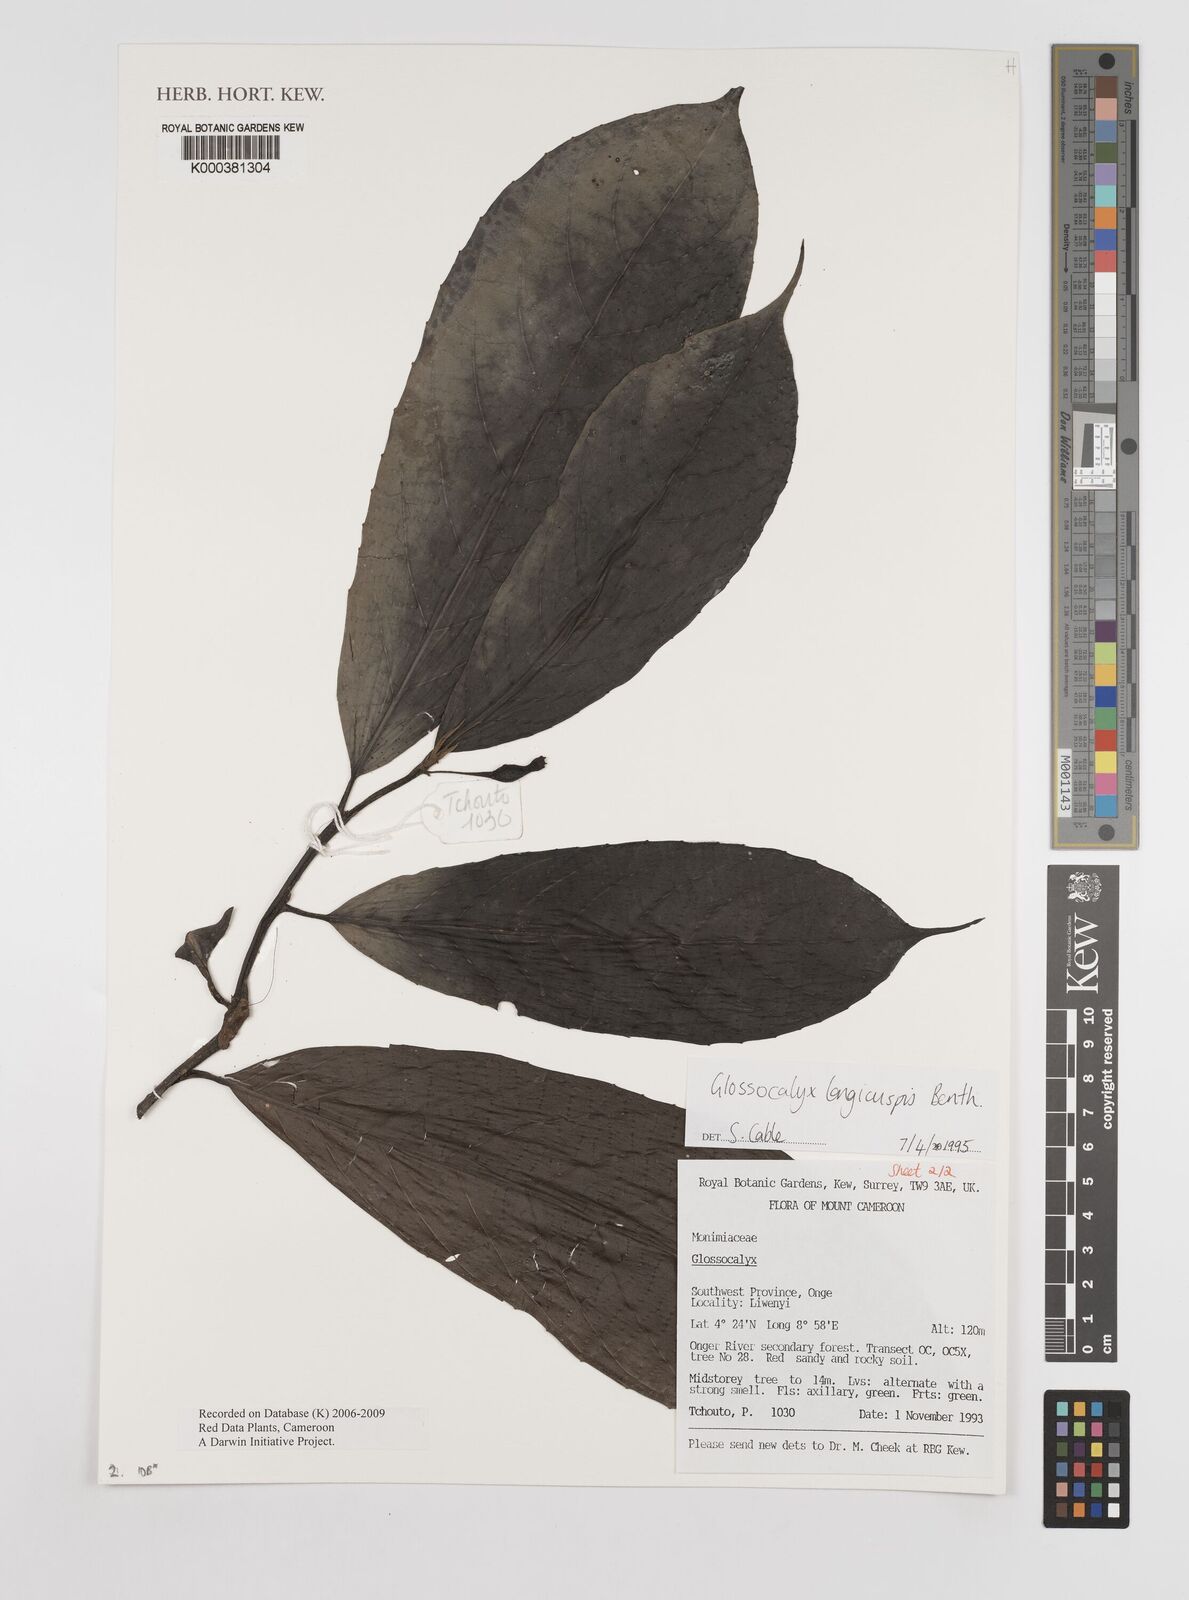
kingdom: Plantae
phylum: Tracheophyta
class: Magnoliopsida
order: Laurales
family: Siparunaceae
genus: Glossocalyx
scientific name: Glossocalyx longicuspis
